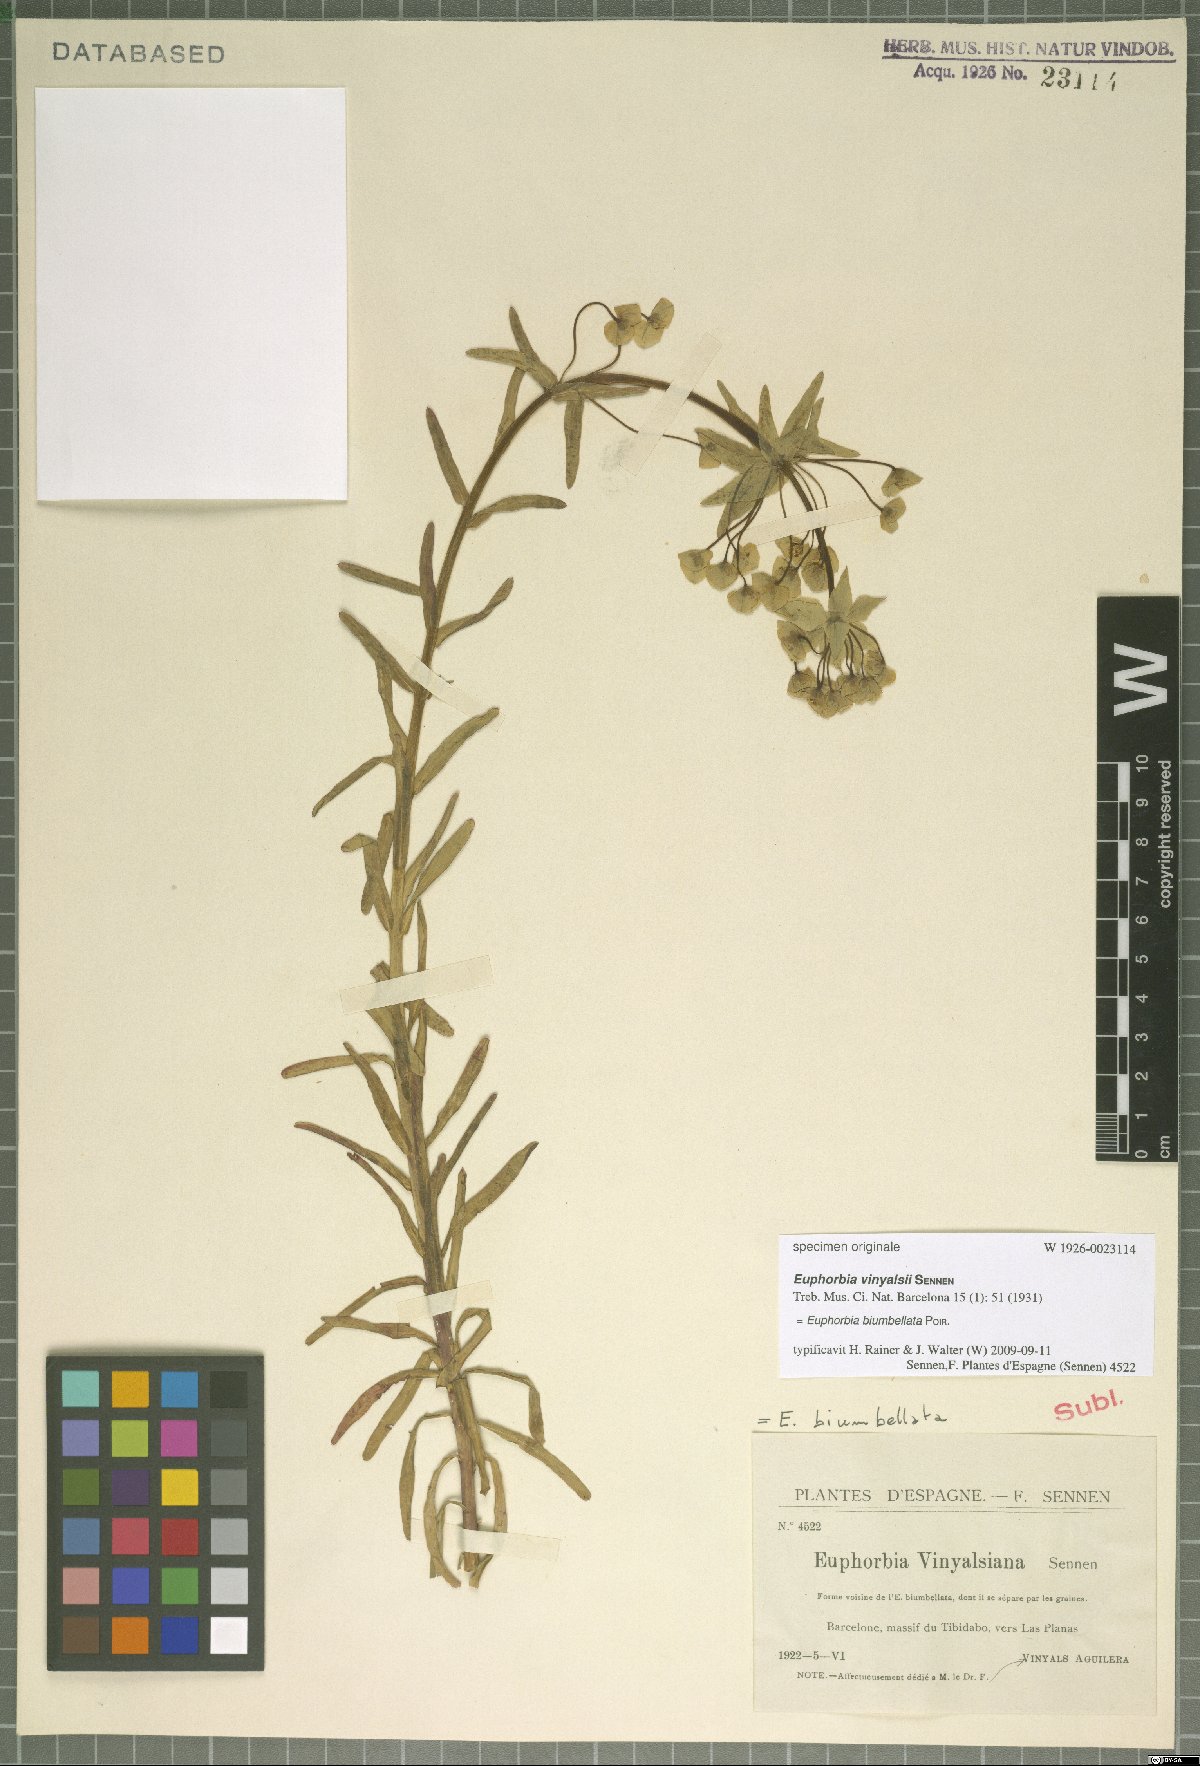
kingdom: Plantae
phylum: Tracheophyta
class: Magnoliopsida
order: Malpighiales
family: Euphorbiaceae
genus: Euphorbia
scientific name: Euphorbia biumbellata
